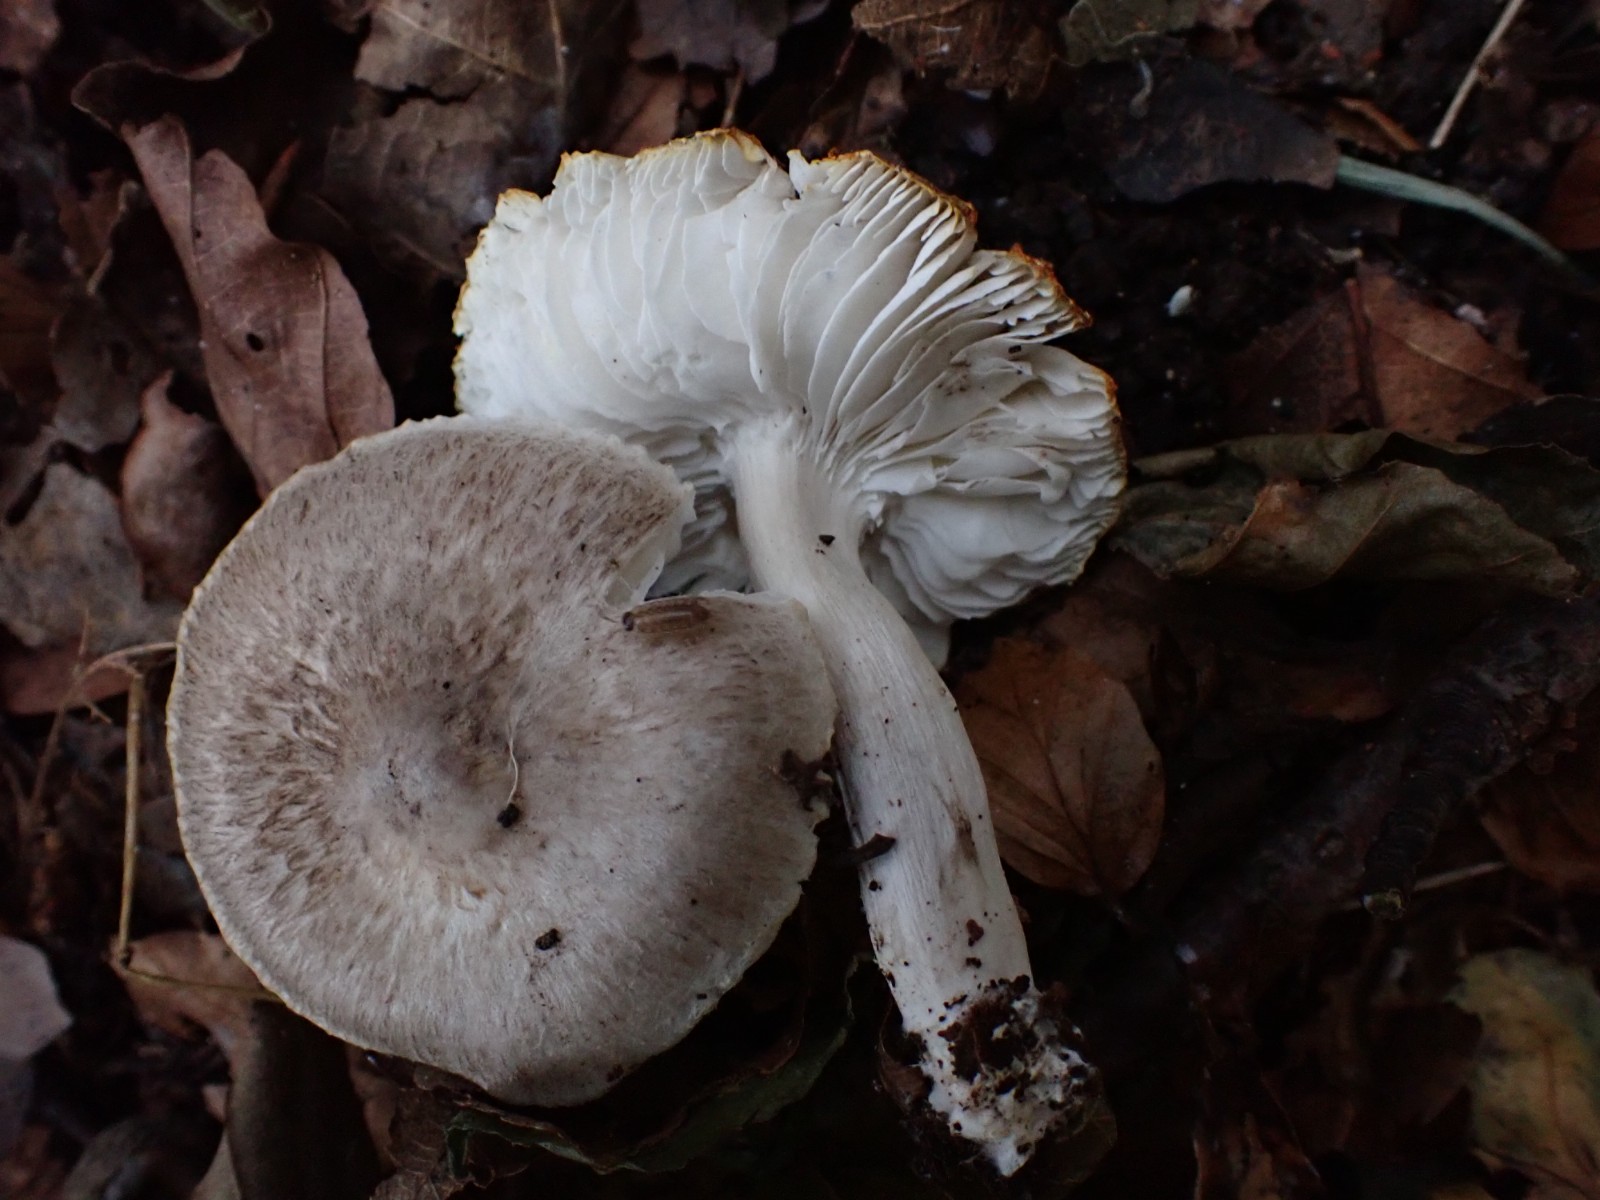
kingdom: Fungi
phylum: Basidiomycota
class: Agaricomycetes
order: Agaricales
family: Tricholomataceae
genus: Tricholoma
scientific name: Tricholoma scalpturatum
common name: gulplettet ridderhat
